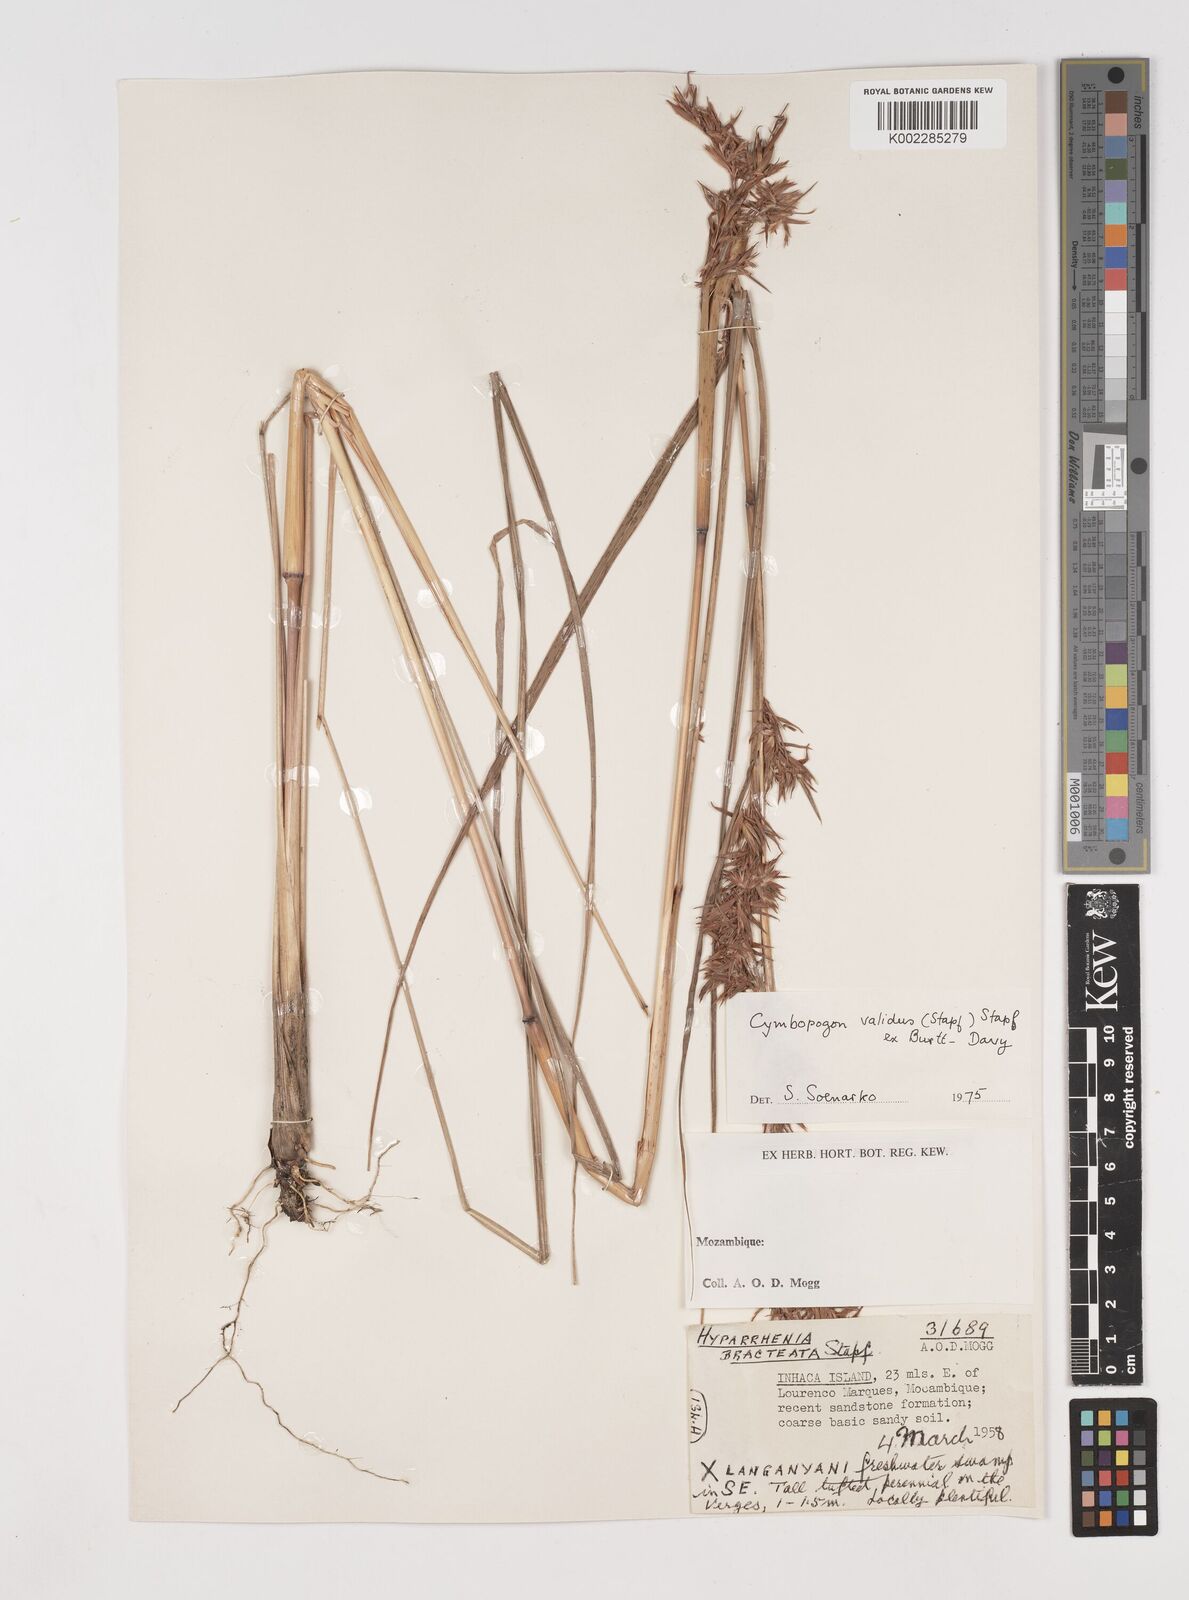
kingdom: Plantae
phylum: Tracheophyta
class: Liliopsida
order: Poales
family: Poaceae
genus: Cymbopogon
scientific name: Cymbopogon nardus
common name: Giant turpentine grass
